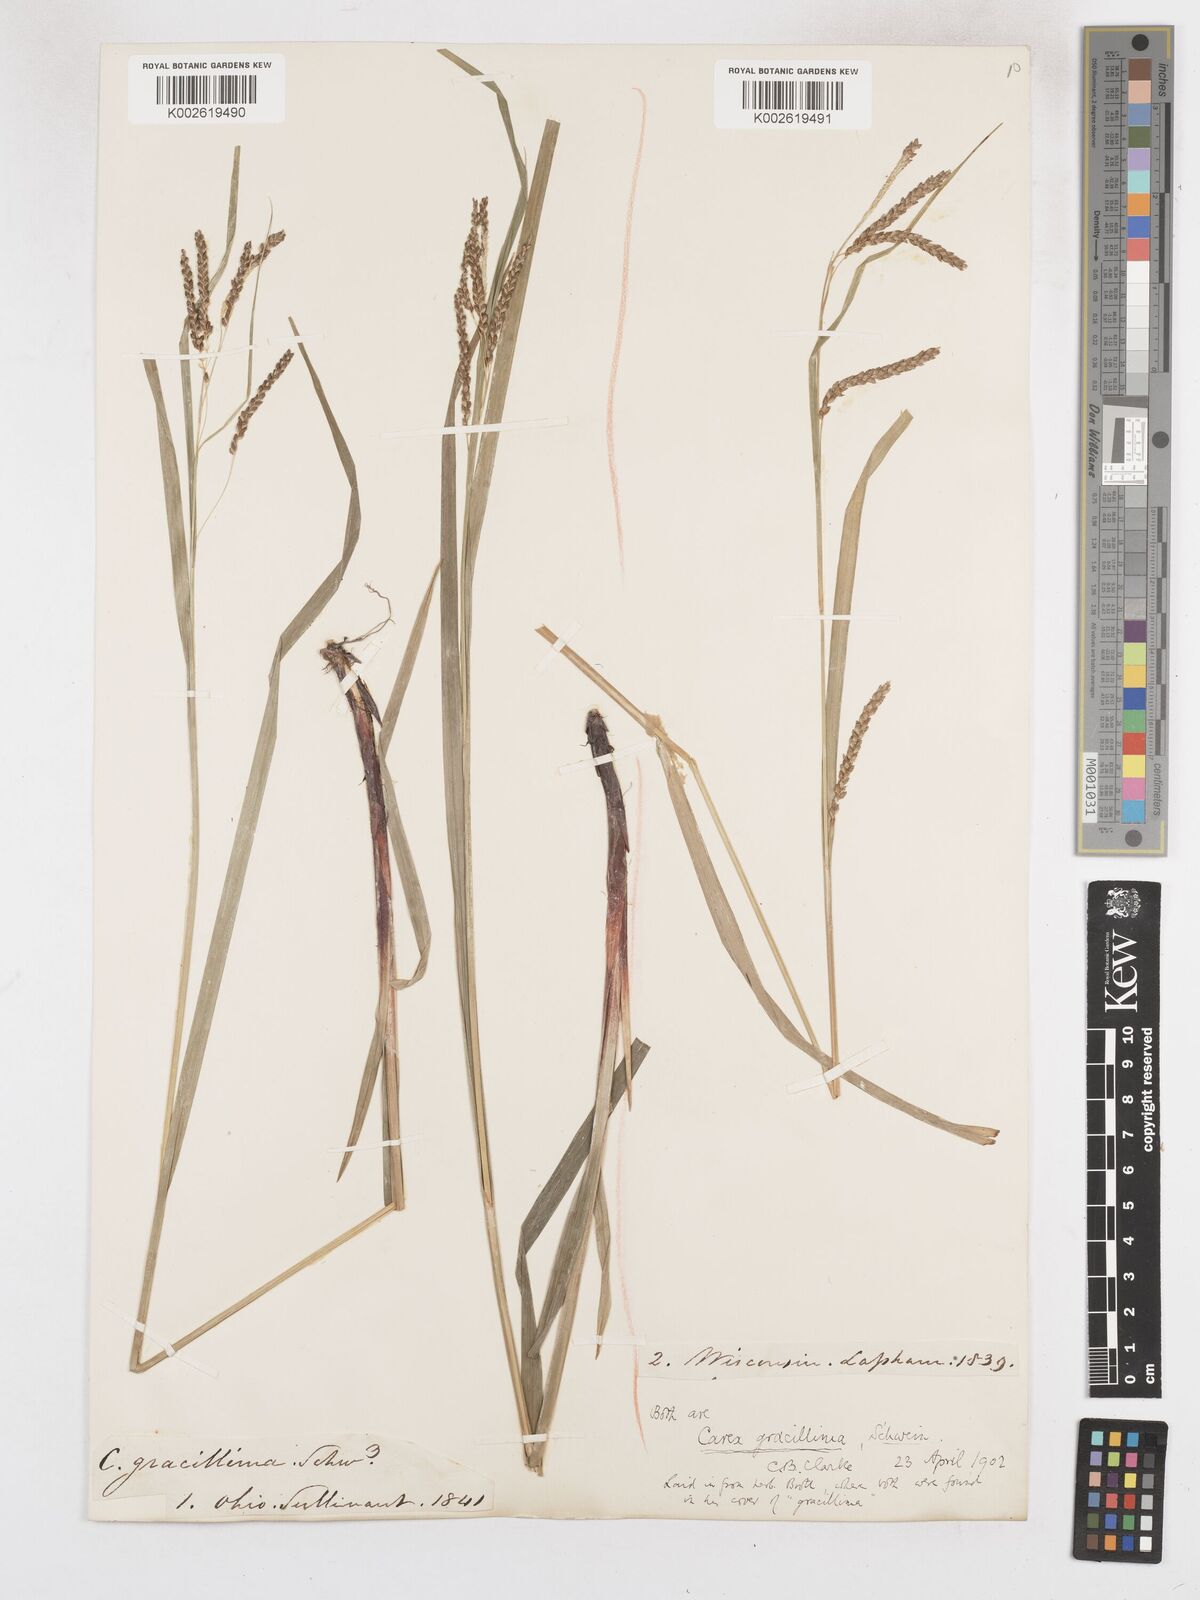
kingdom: Plantae
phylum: Tracheophyta
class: Liliopsida
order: Poales
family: Cyperaceae
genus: Carex
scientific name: Carex gracillima
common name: Graceful sedge
